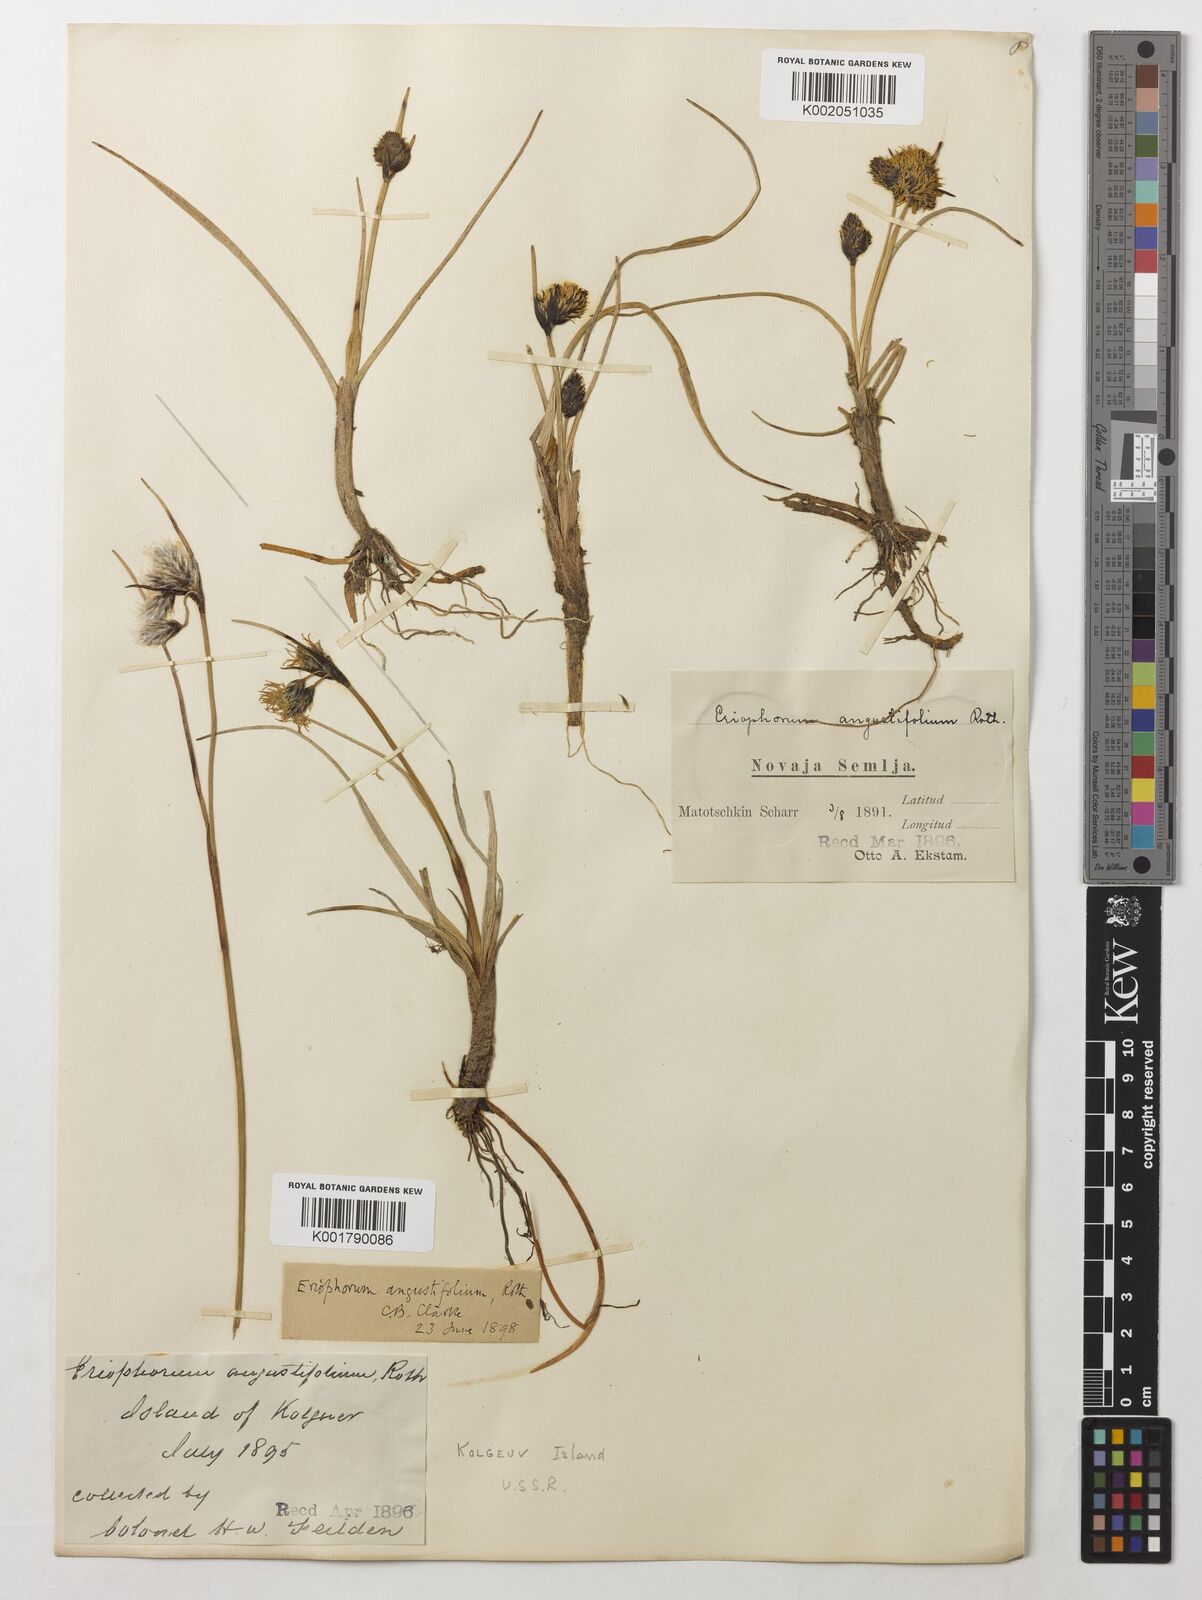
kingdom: Plantae
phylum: Tracheophyta
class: Liliopsida
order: Poales
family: Cyperaceae
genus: Eriophorum
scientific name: Eriophorum angustifolium
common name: Common cottongrass
